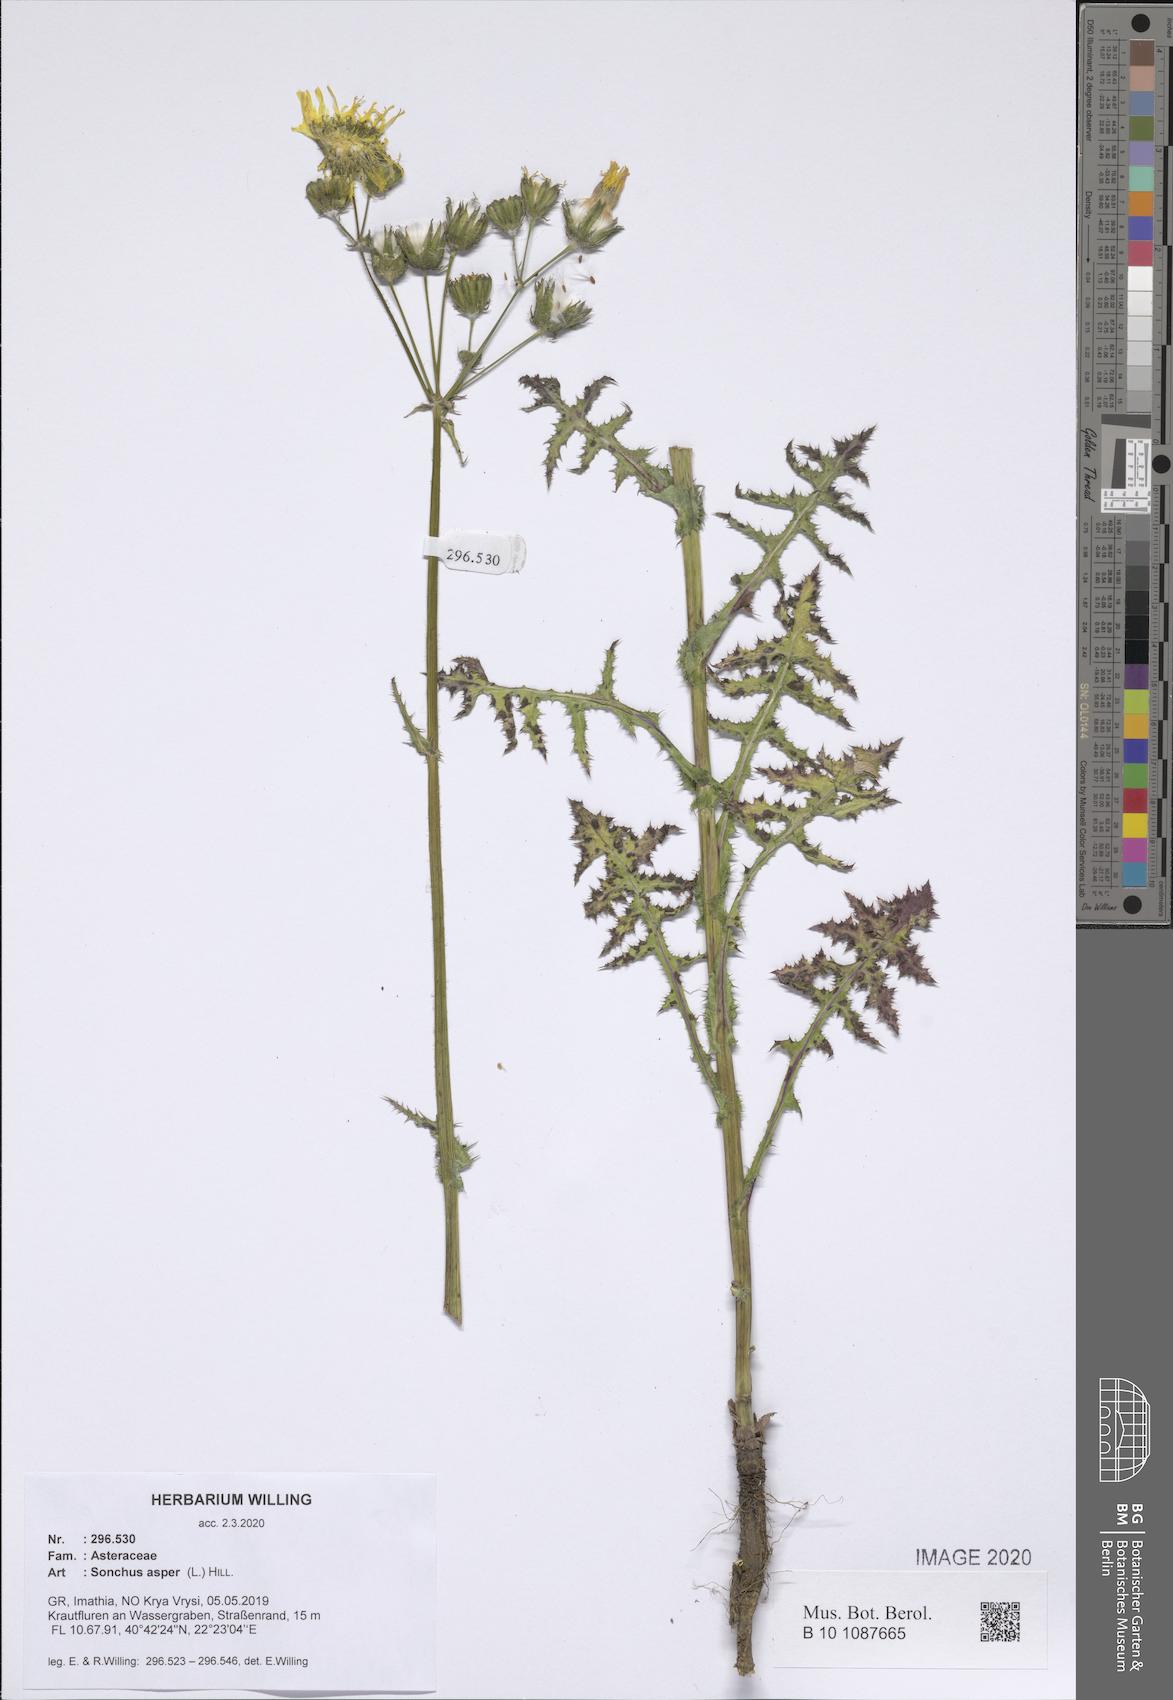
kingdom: Plantae
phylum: Tracheophyta
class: Magnoliopsida
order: Asterales
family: Asteraceae
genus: Sonchus
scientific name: Sonchus asper
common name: Prickly sow-thistle
